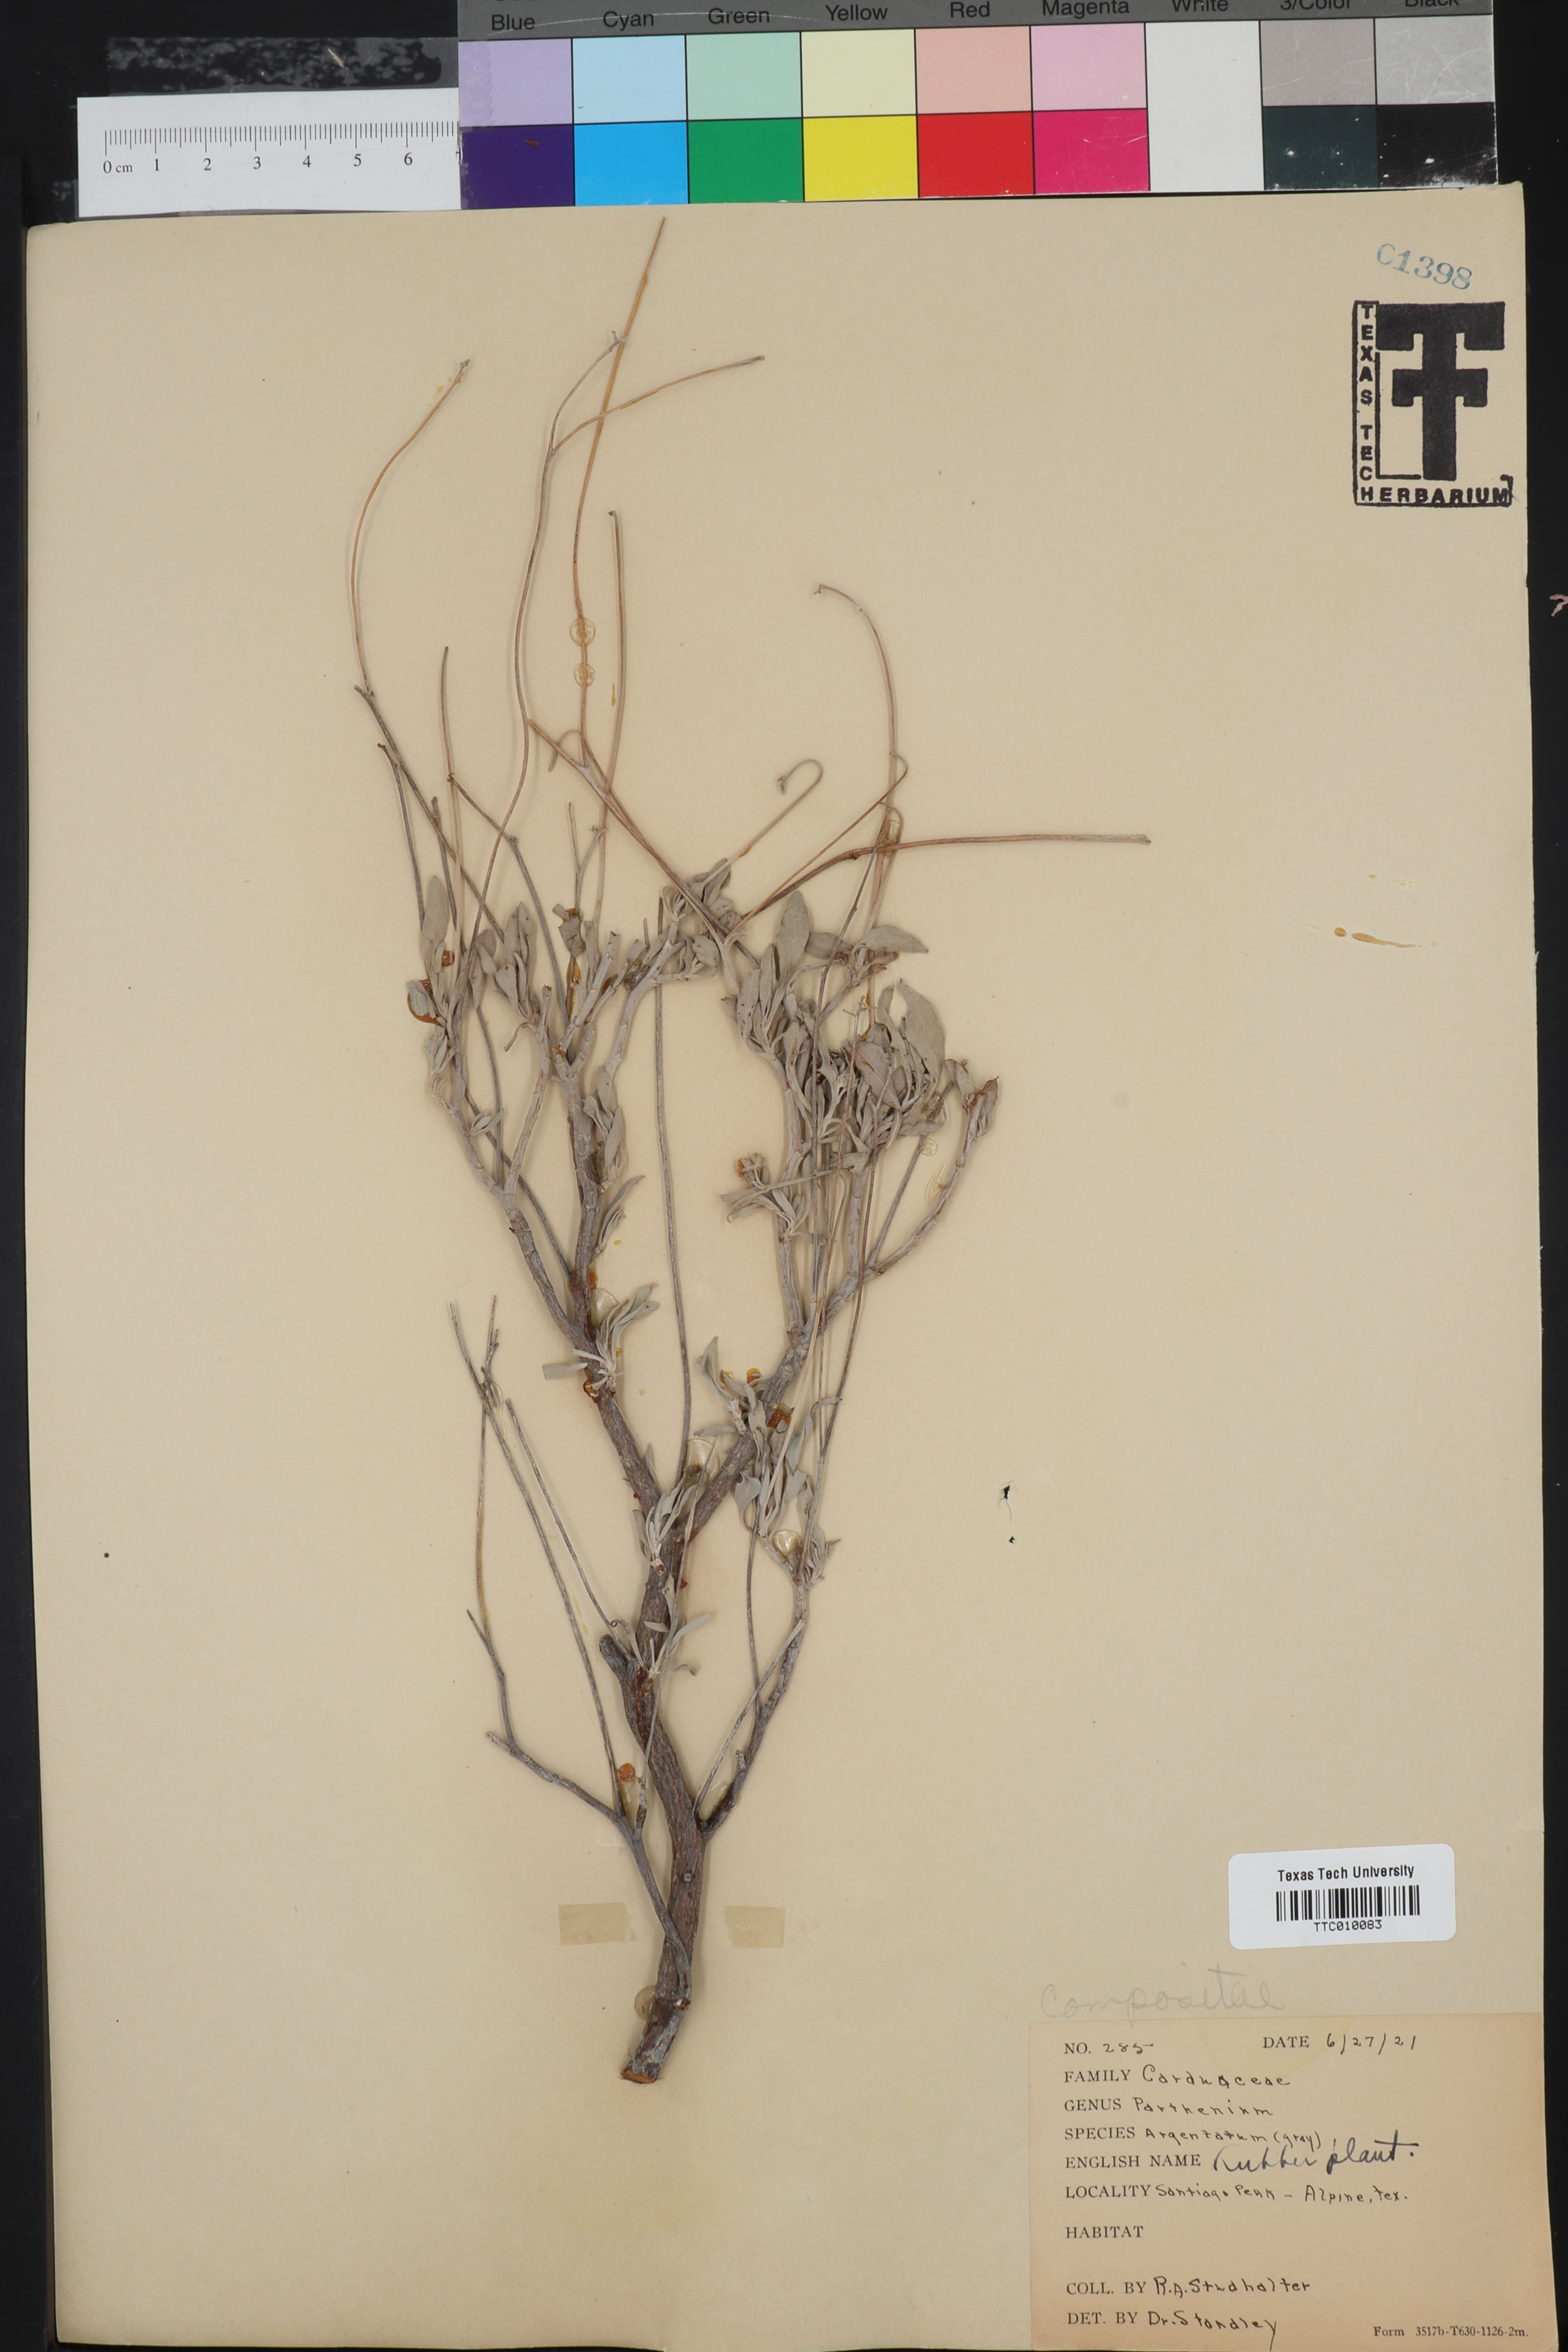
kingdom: Plantae
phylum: Tracheophyta
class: Magnoliopsida
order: Asterales
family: Asteraceae
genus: Parthenium
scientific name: Parthenium argentatum
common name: Guayule
